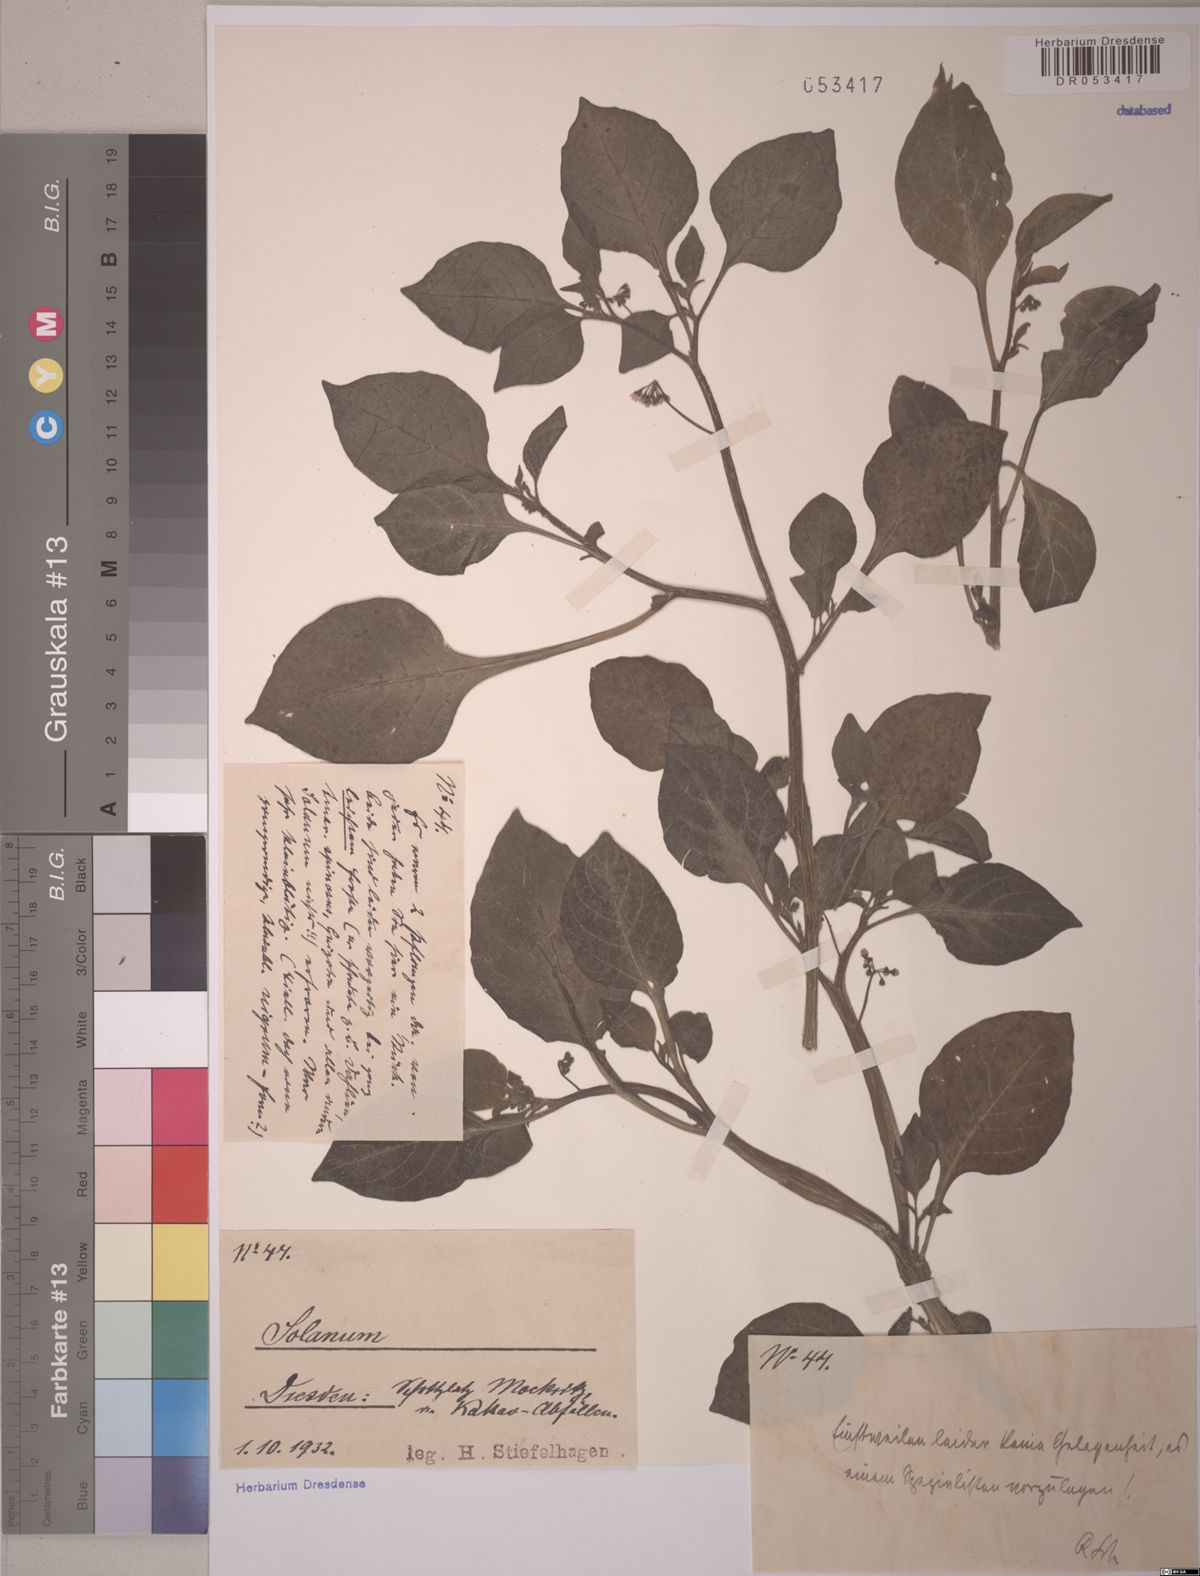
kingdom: Plantae
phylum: Tracheophyta
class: Magnoliopsida
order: Solanales
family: Solanaceae
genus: Solanum
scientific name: Solanum
